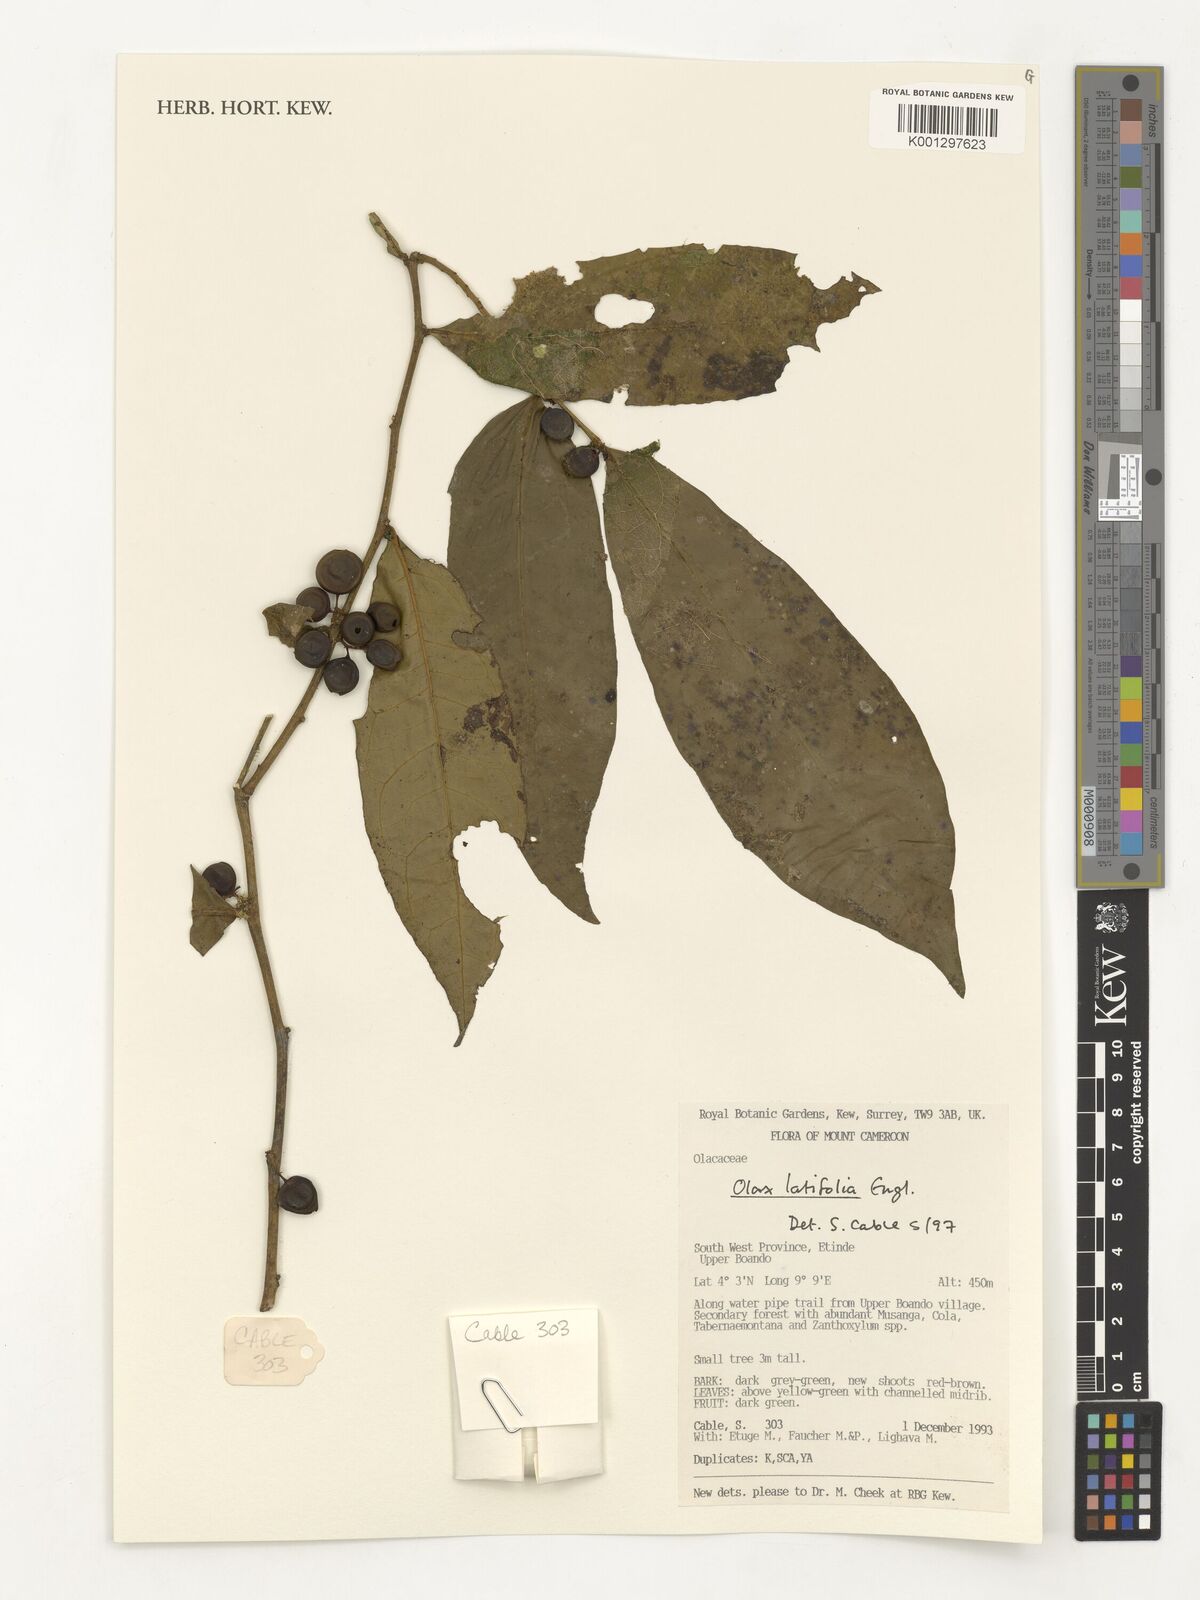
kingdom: Plantae
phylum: Tracheophyta
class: Magnoliopsida
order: Santalales
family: Olacaceae
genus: Olax
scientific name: Olax latifolia
